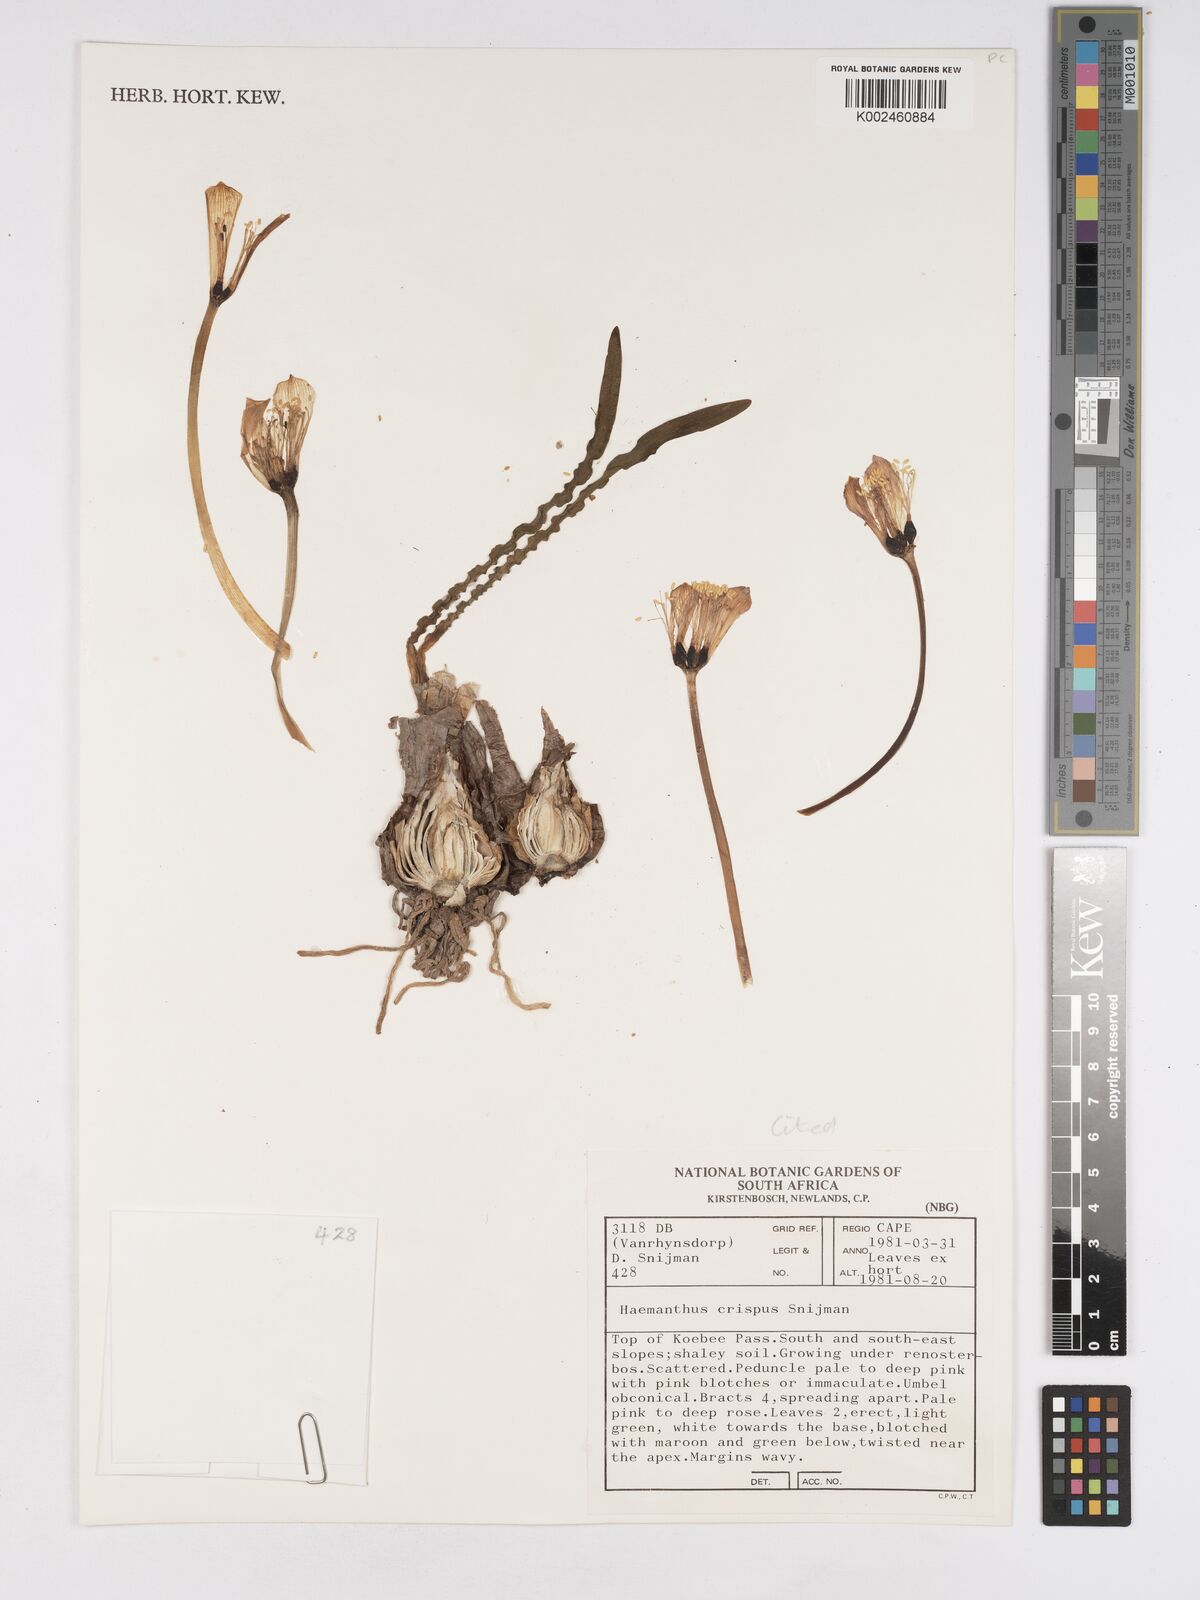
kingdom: Plantae
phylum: Tracheophyta
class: Liliopsida
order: Asparagales
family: Amaryllidaceae
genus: Haemanthus
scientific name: Haemanthus crispus
